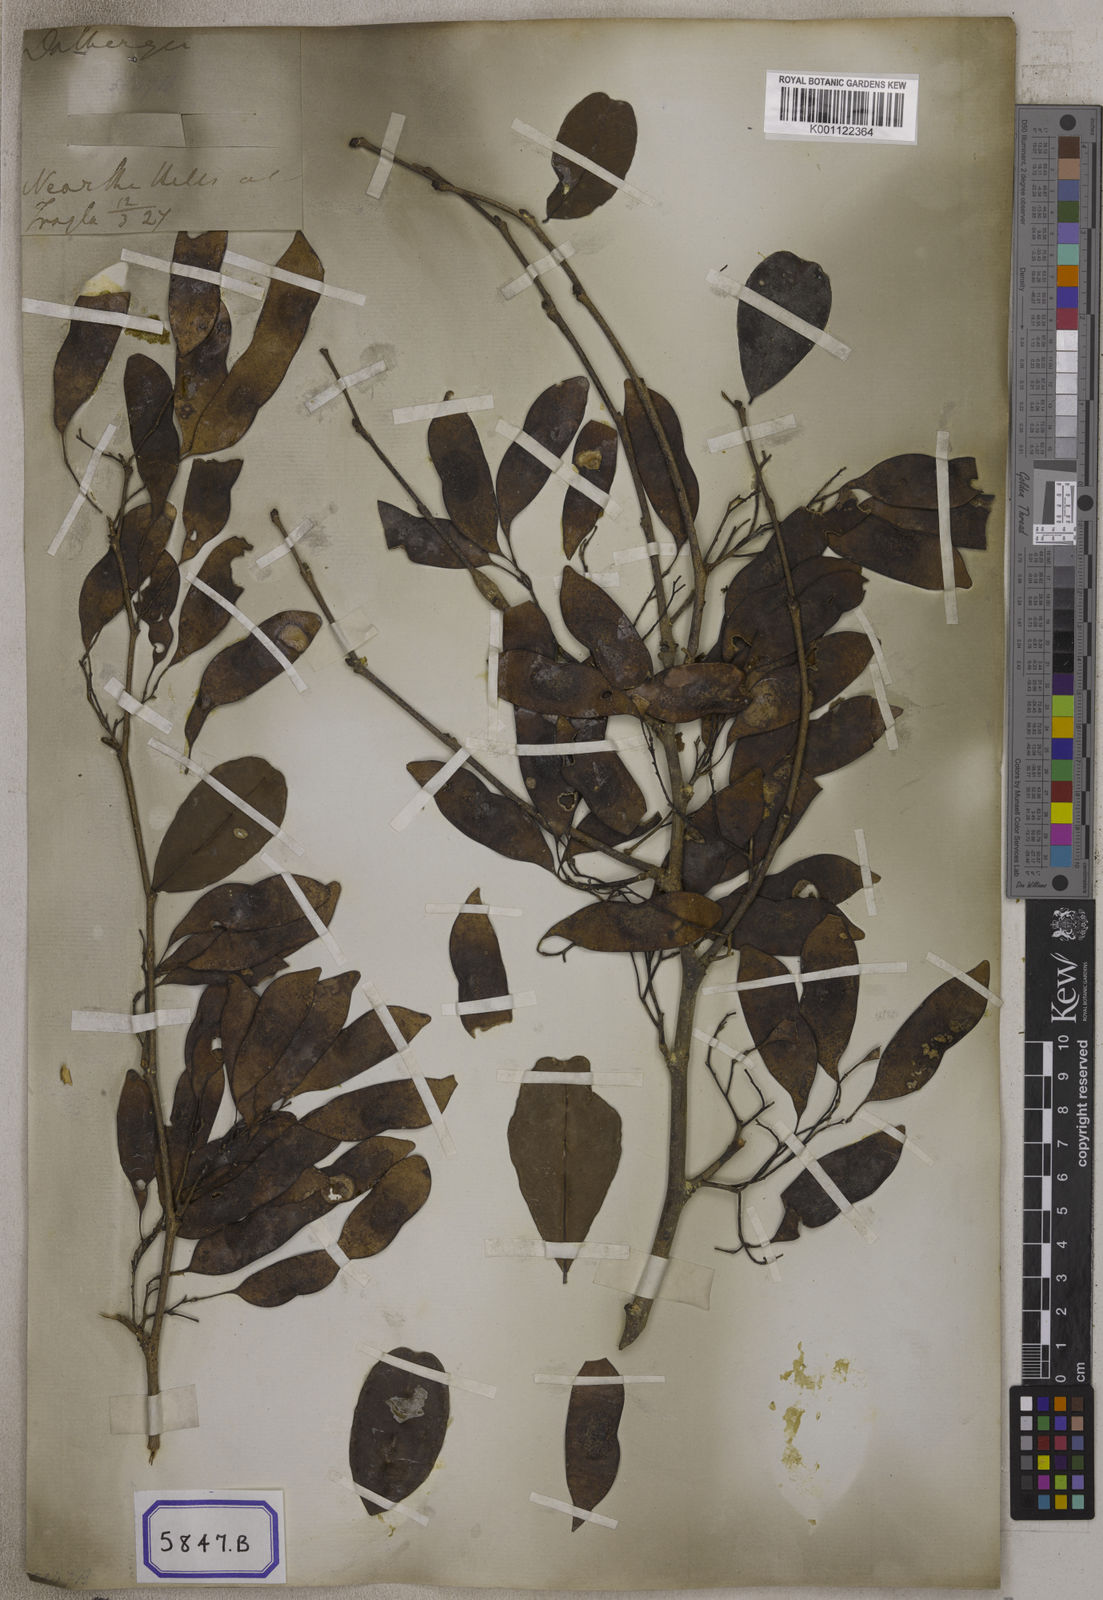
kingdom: Plantae
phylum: Tracheophyta
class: Magnoliopsida
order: Fabales
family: Fabaceae
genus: Dalbergia
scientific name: Dalbergia lanceolaria
